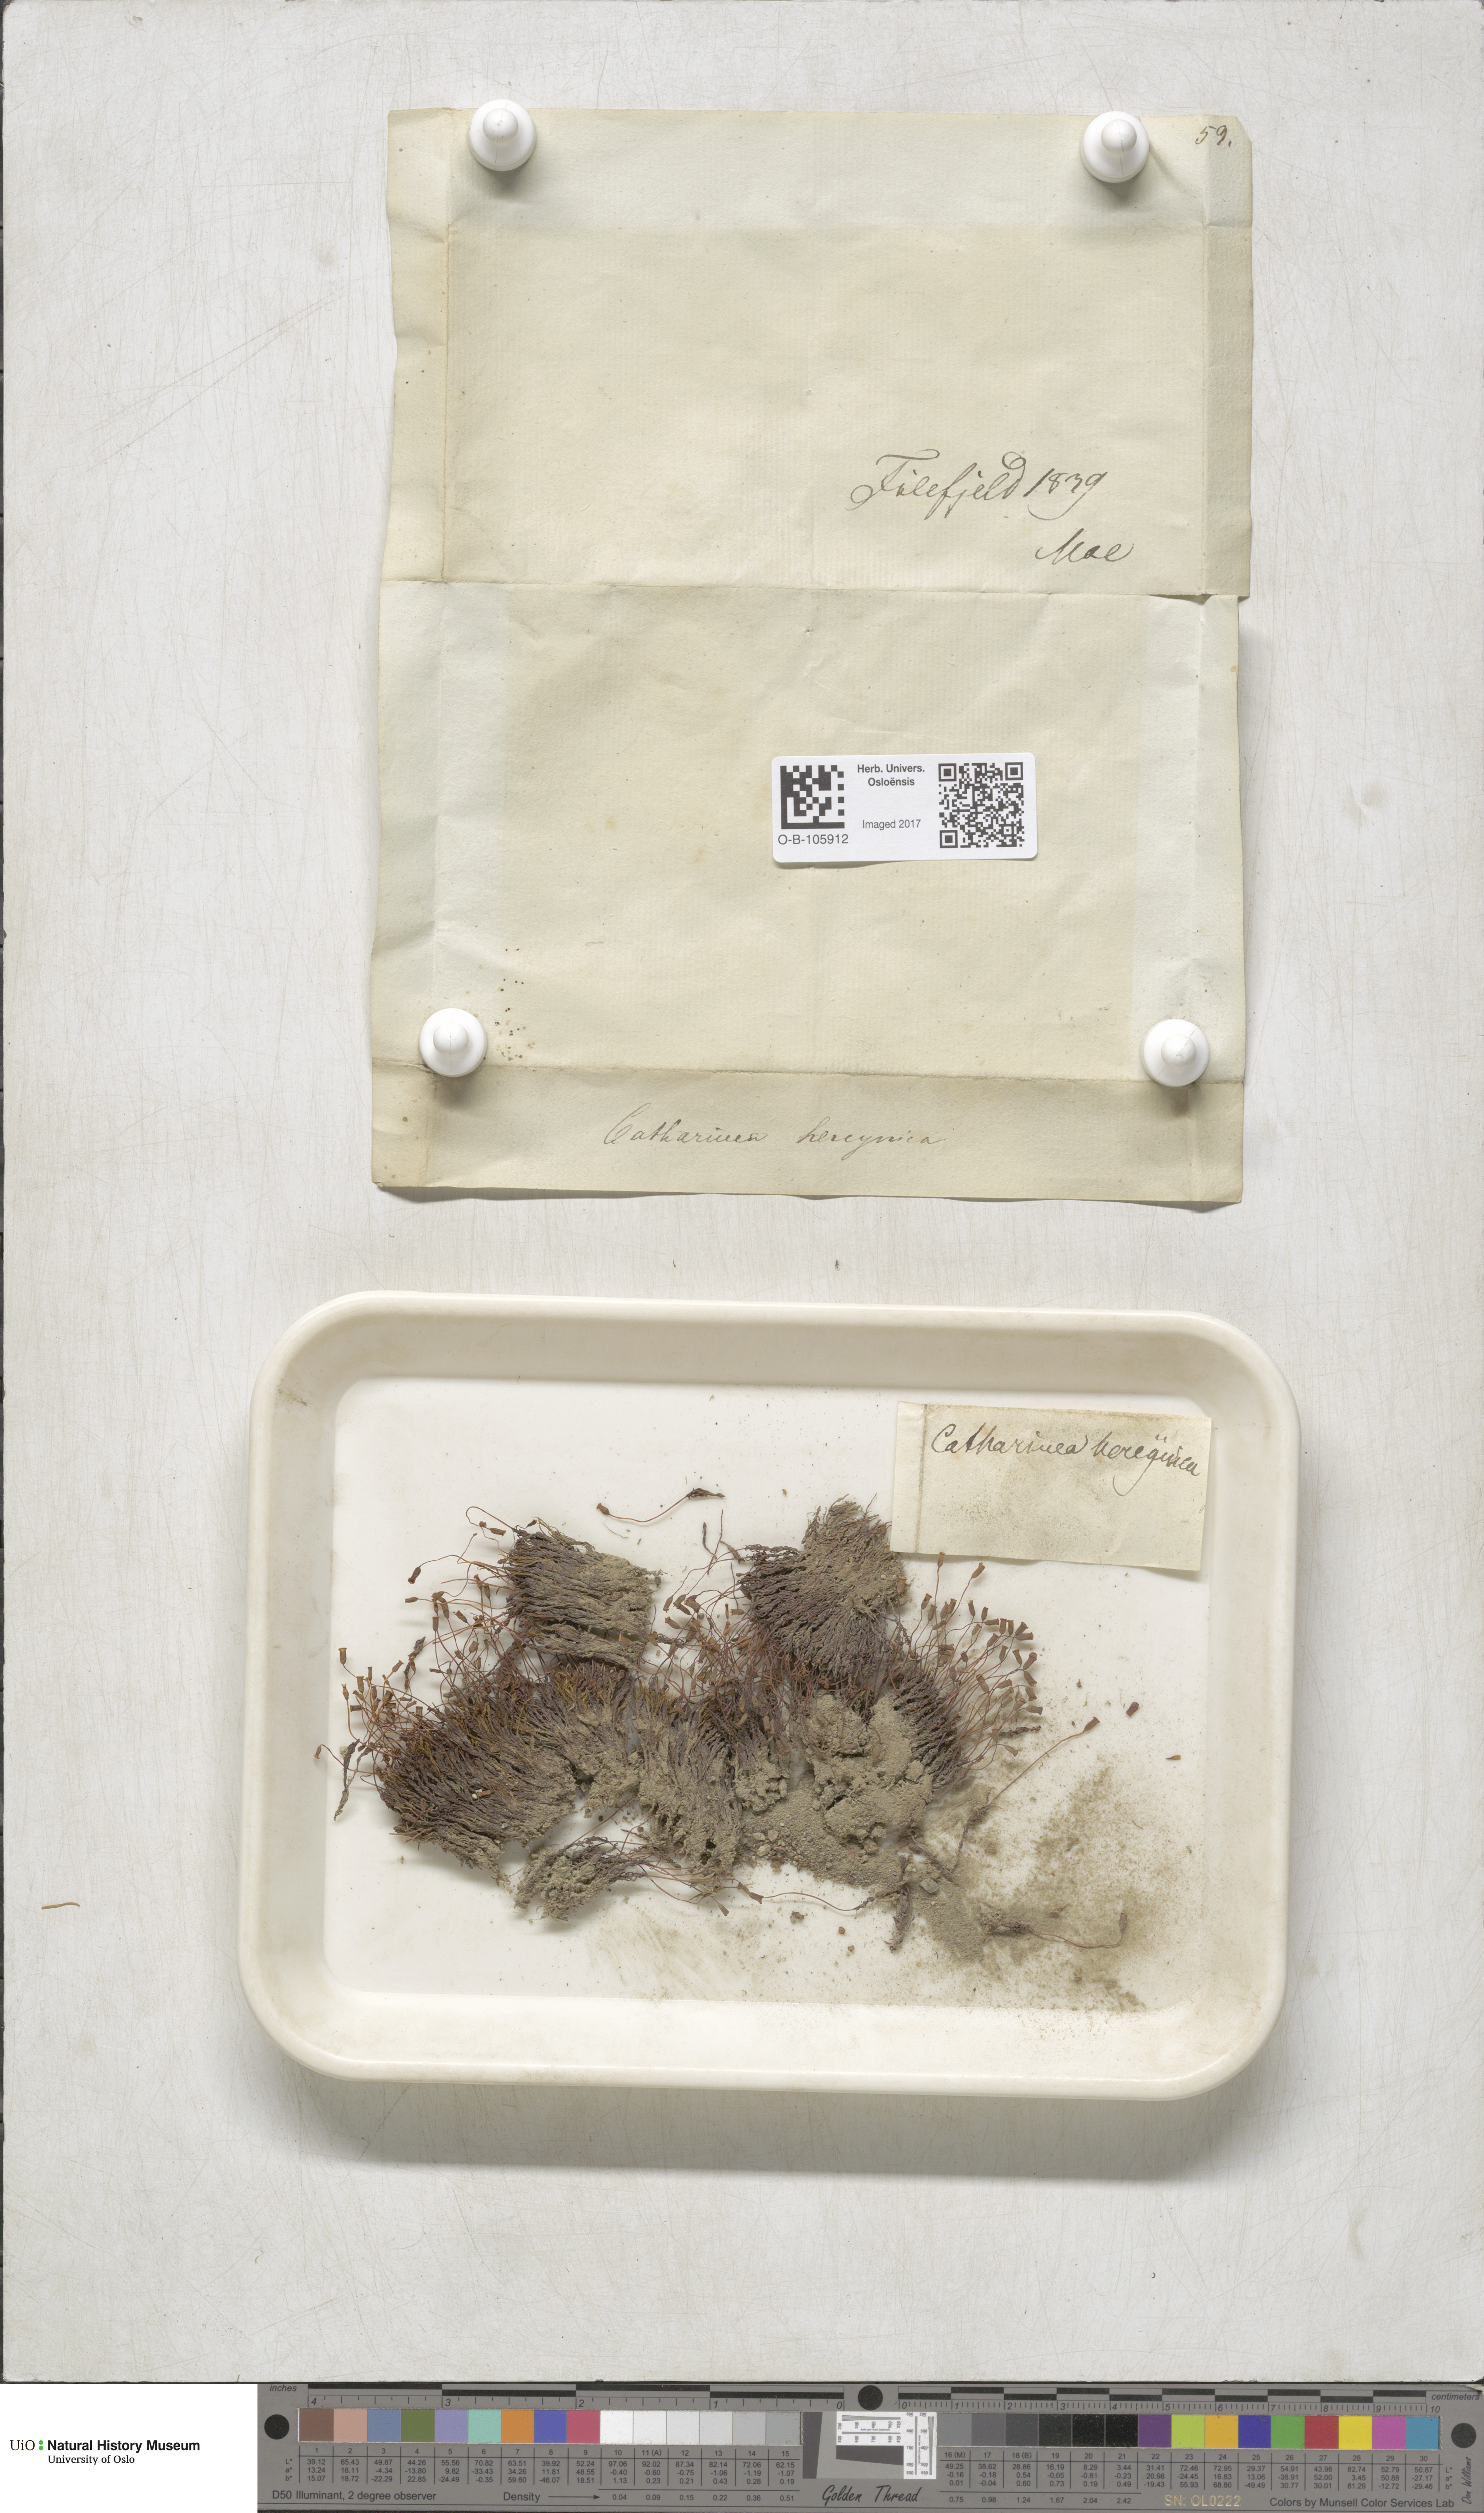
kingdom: Plantae
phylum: Bryophyta
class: Polytrichopsida
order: Polytrichales
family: Polytrichaceae
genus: Oligotrichum
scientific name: Oligotrichum hercynicum
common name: Hercynian hair moss
